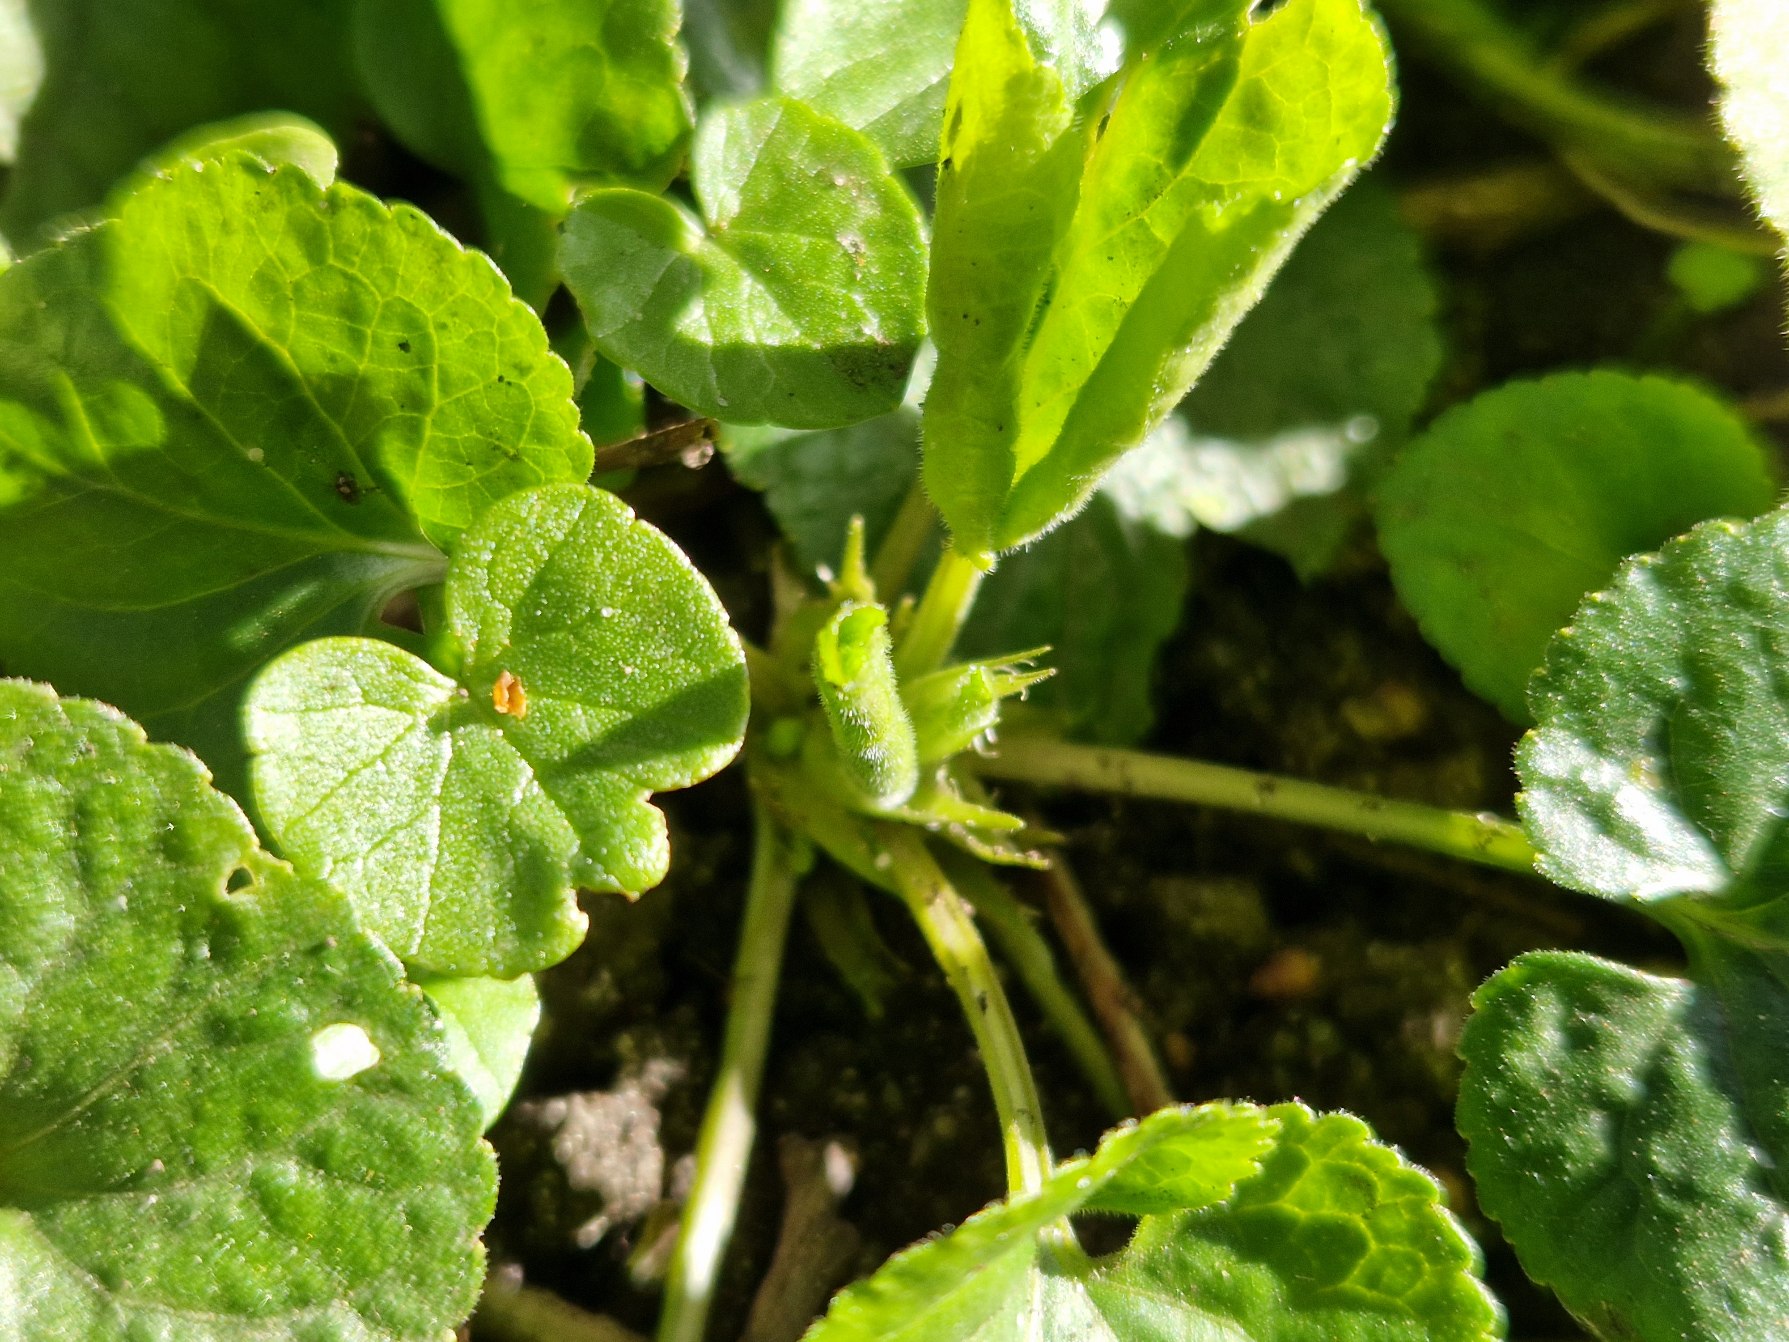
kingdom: Plantae
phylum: Tracheophyta
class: Magnoliopsida
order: Malpighiales
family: Violaceae
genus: Viola
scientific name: Viola odorata
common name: Marts-viol
